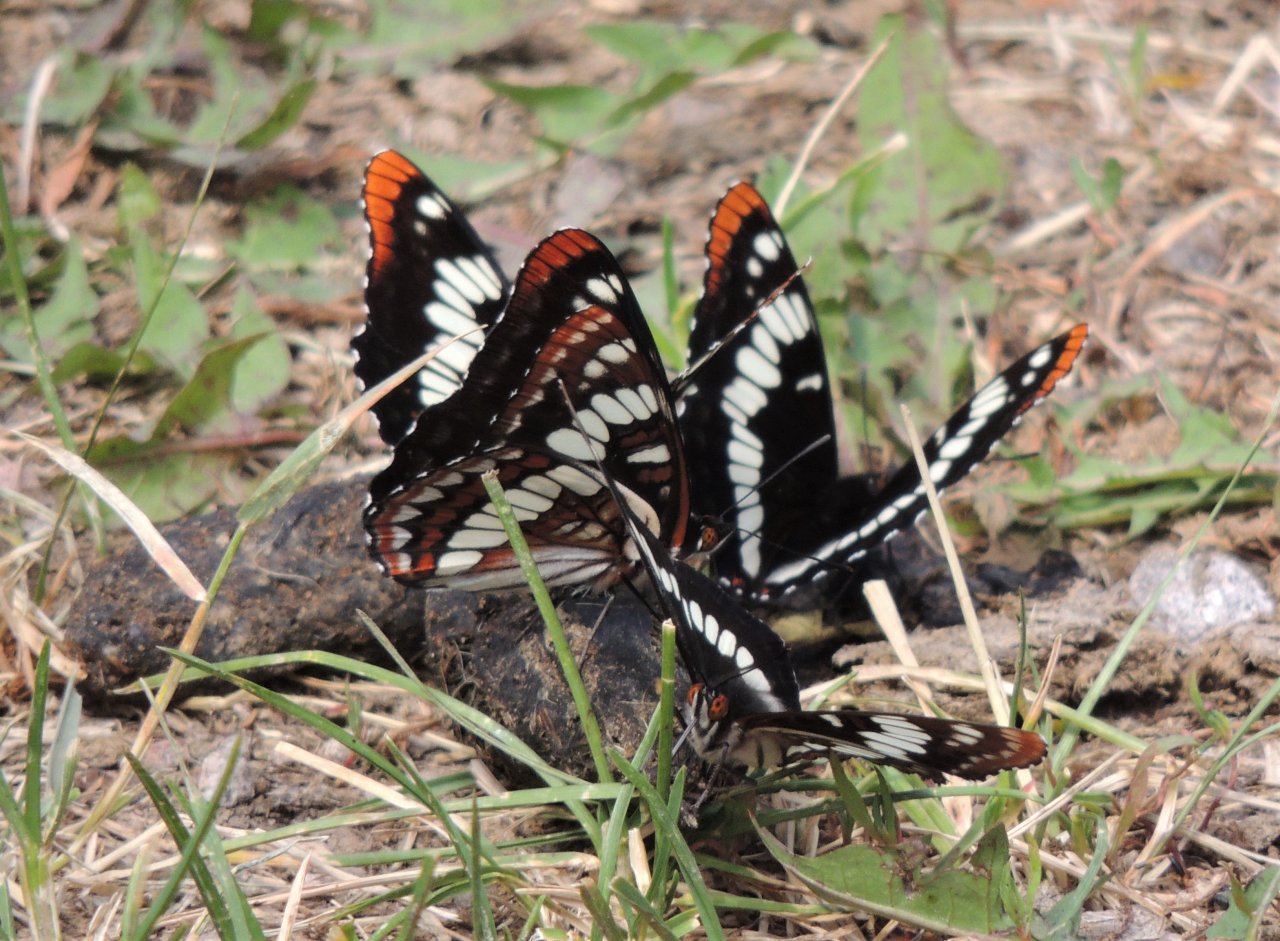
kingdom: Animalia
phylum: Arthropoda
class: Insecta
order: Lepidoptera
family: Nymphalidae
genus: Limenitis
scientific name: Limenitis lorquini
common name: Lorquin's Admiral
